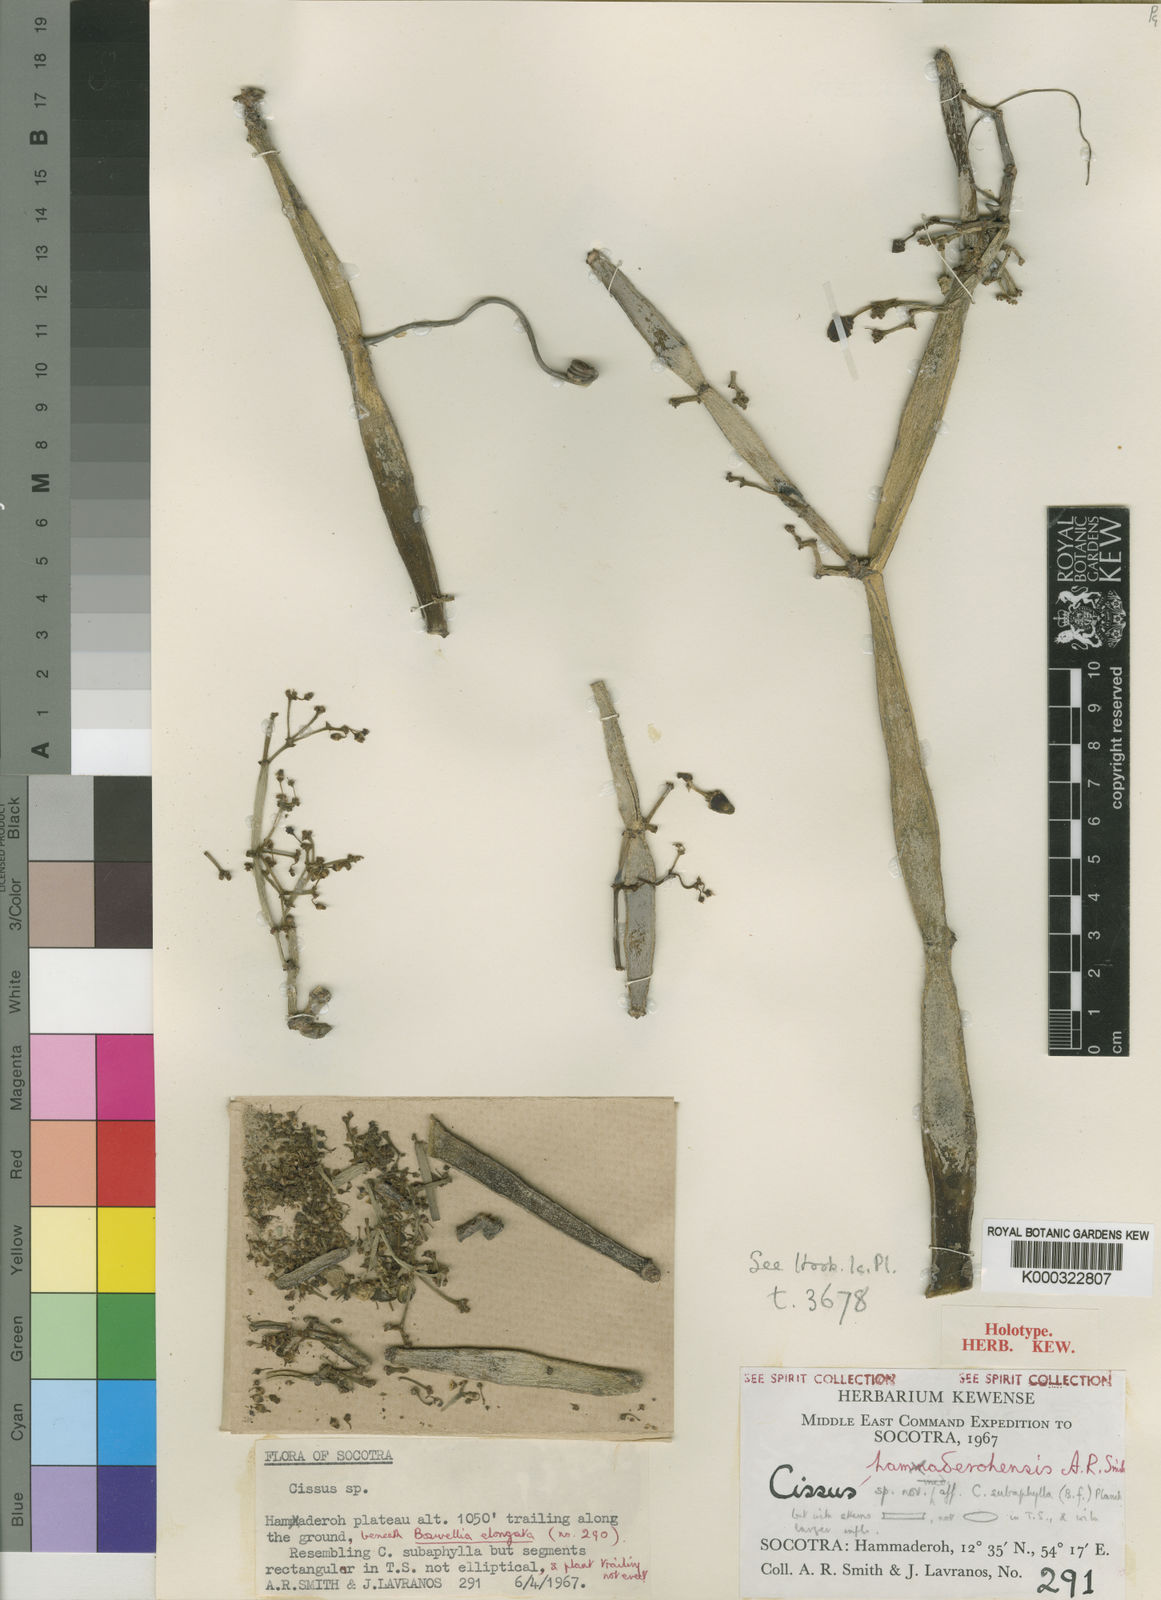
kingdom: Plantae
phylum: Tracheophyta
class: Magnoliopsida
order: Vitales
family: Vitaceae
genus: Cissus
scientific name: Cissus hamaderohensis
